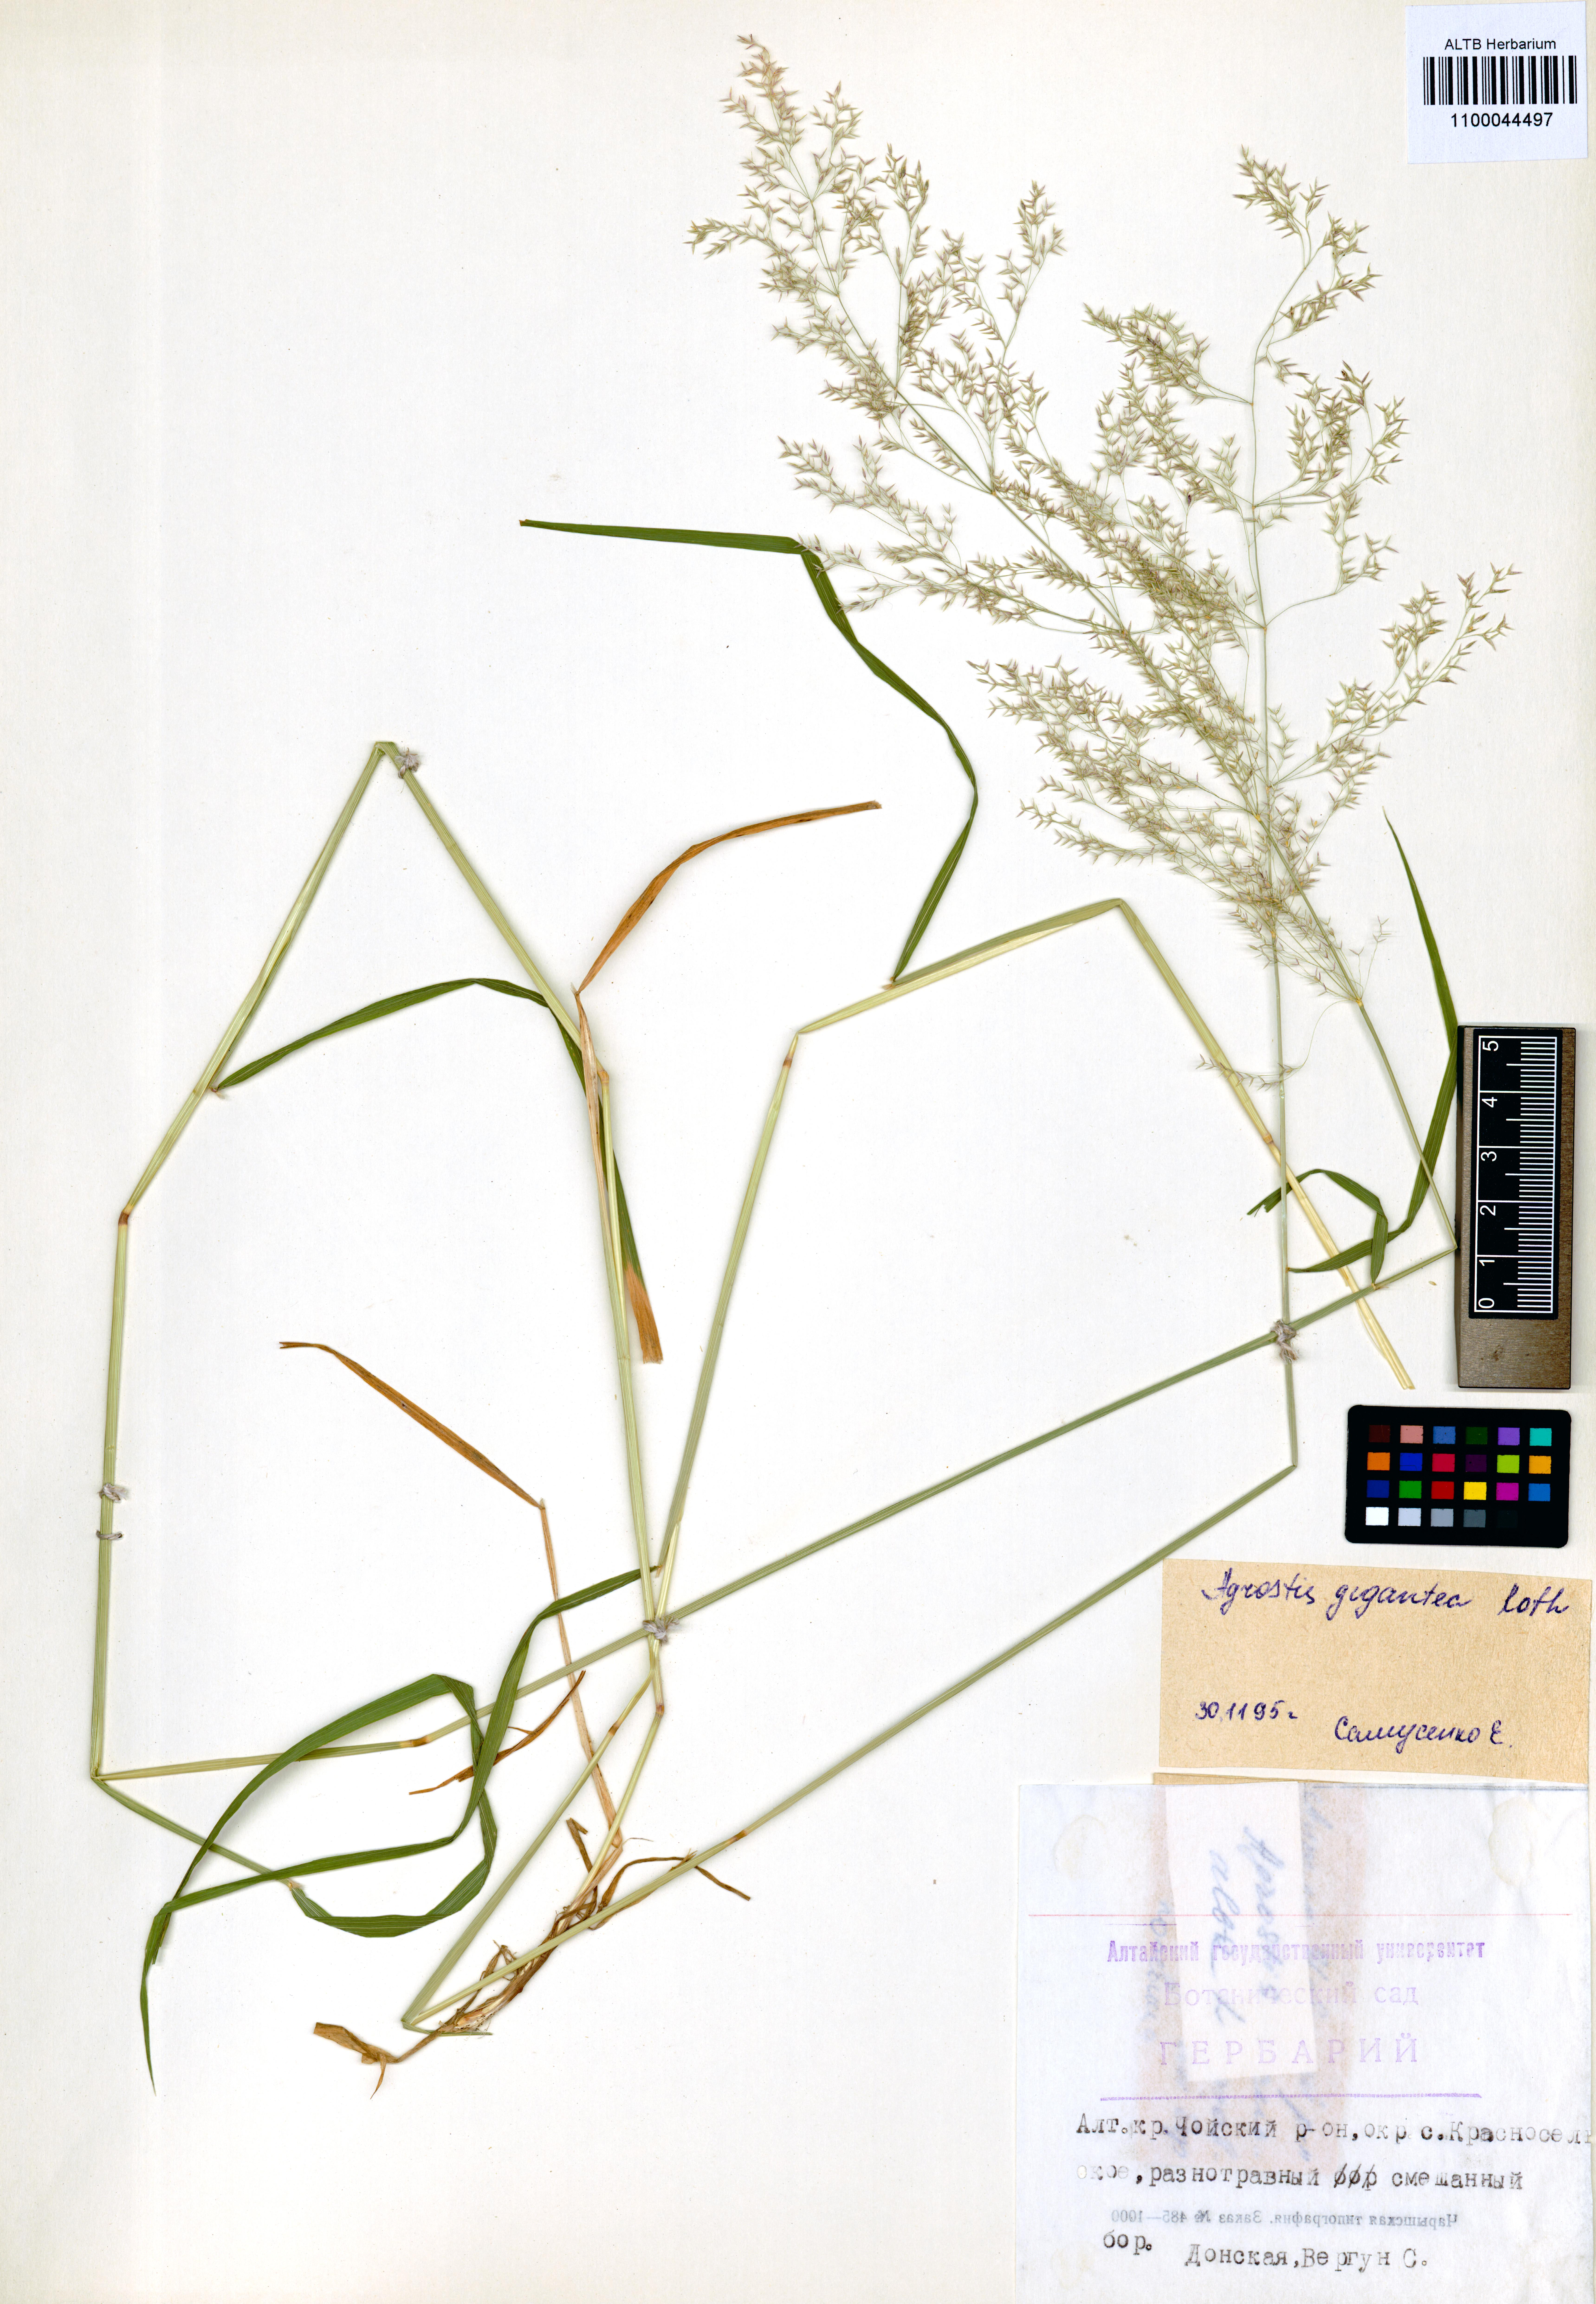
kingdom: Plantae
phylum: Tracheophyta
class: Liliopsida
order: Poales
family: Poaceae
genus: Agrostis
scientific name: Agrostis gigantea
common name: Black bent
